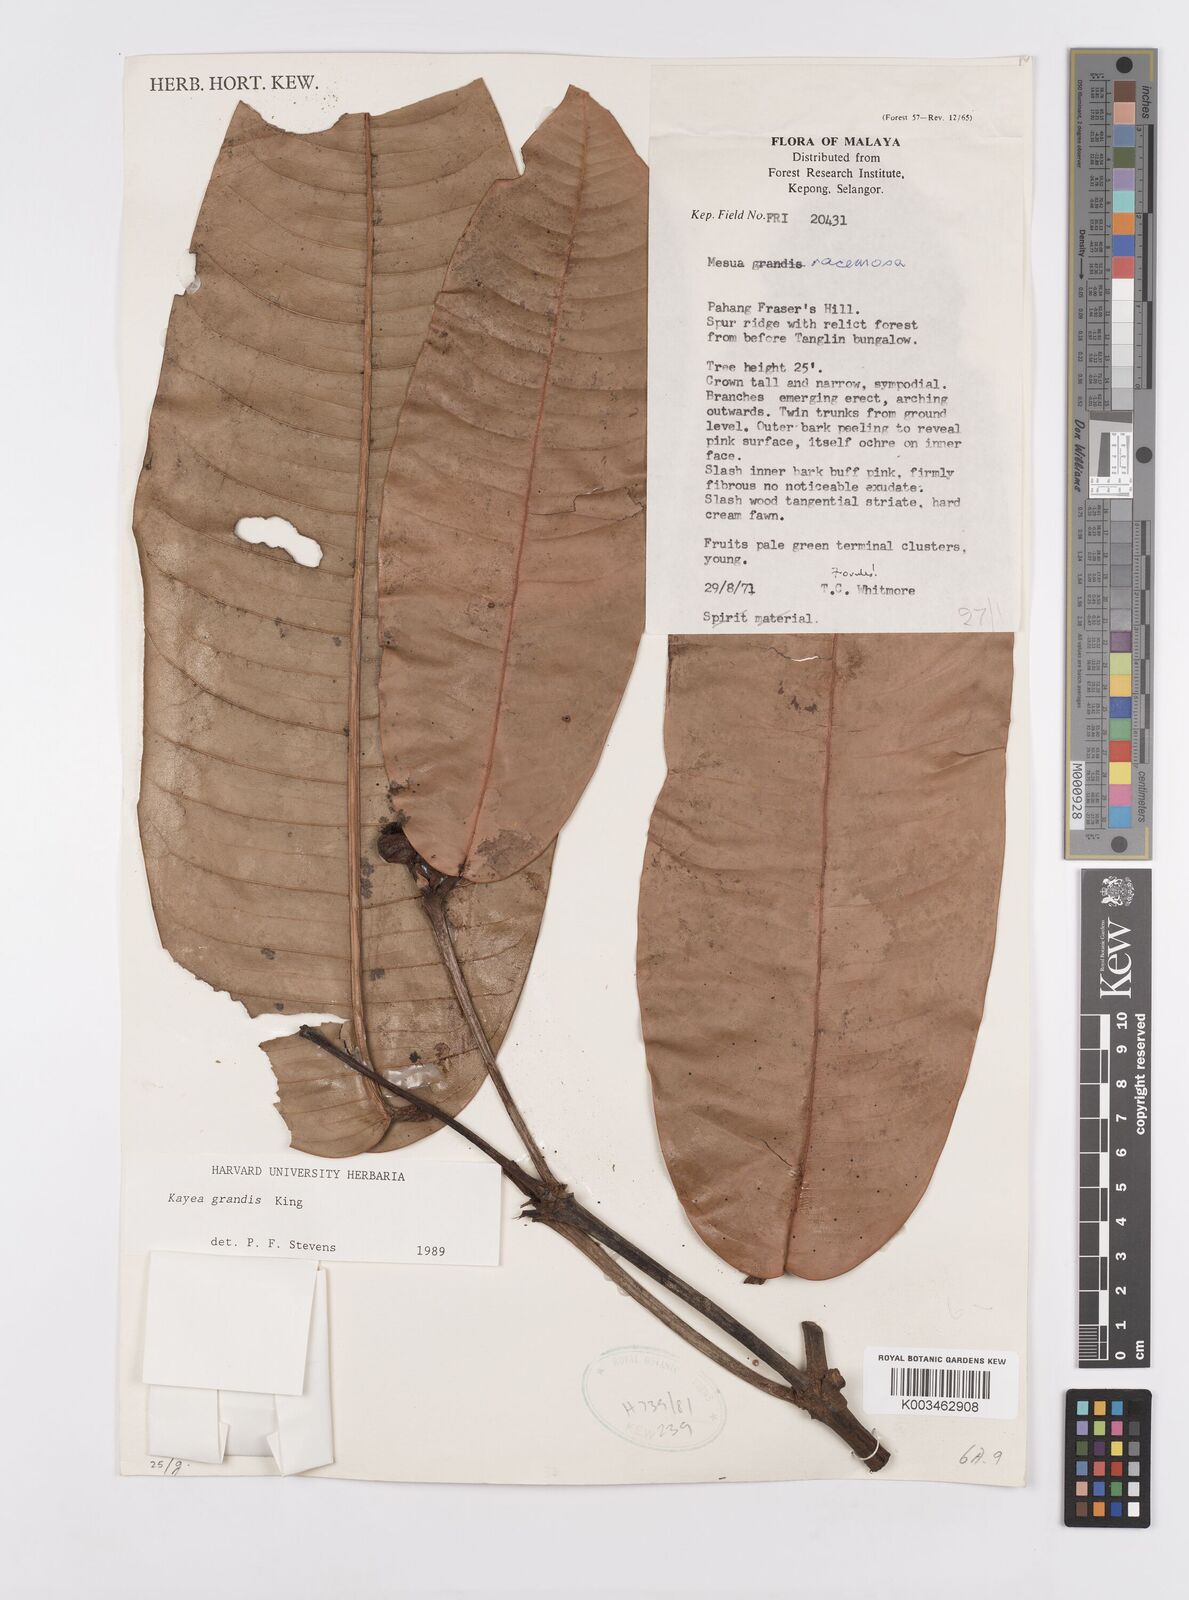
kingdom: Plantae
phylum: Tracheophyta
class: Magnoliopsida
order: Malpighiales
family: Calophyllaceae
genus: Kayea
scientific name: Kayea grandis
